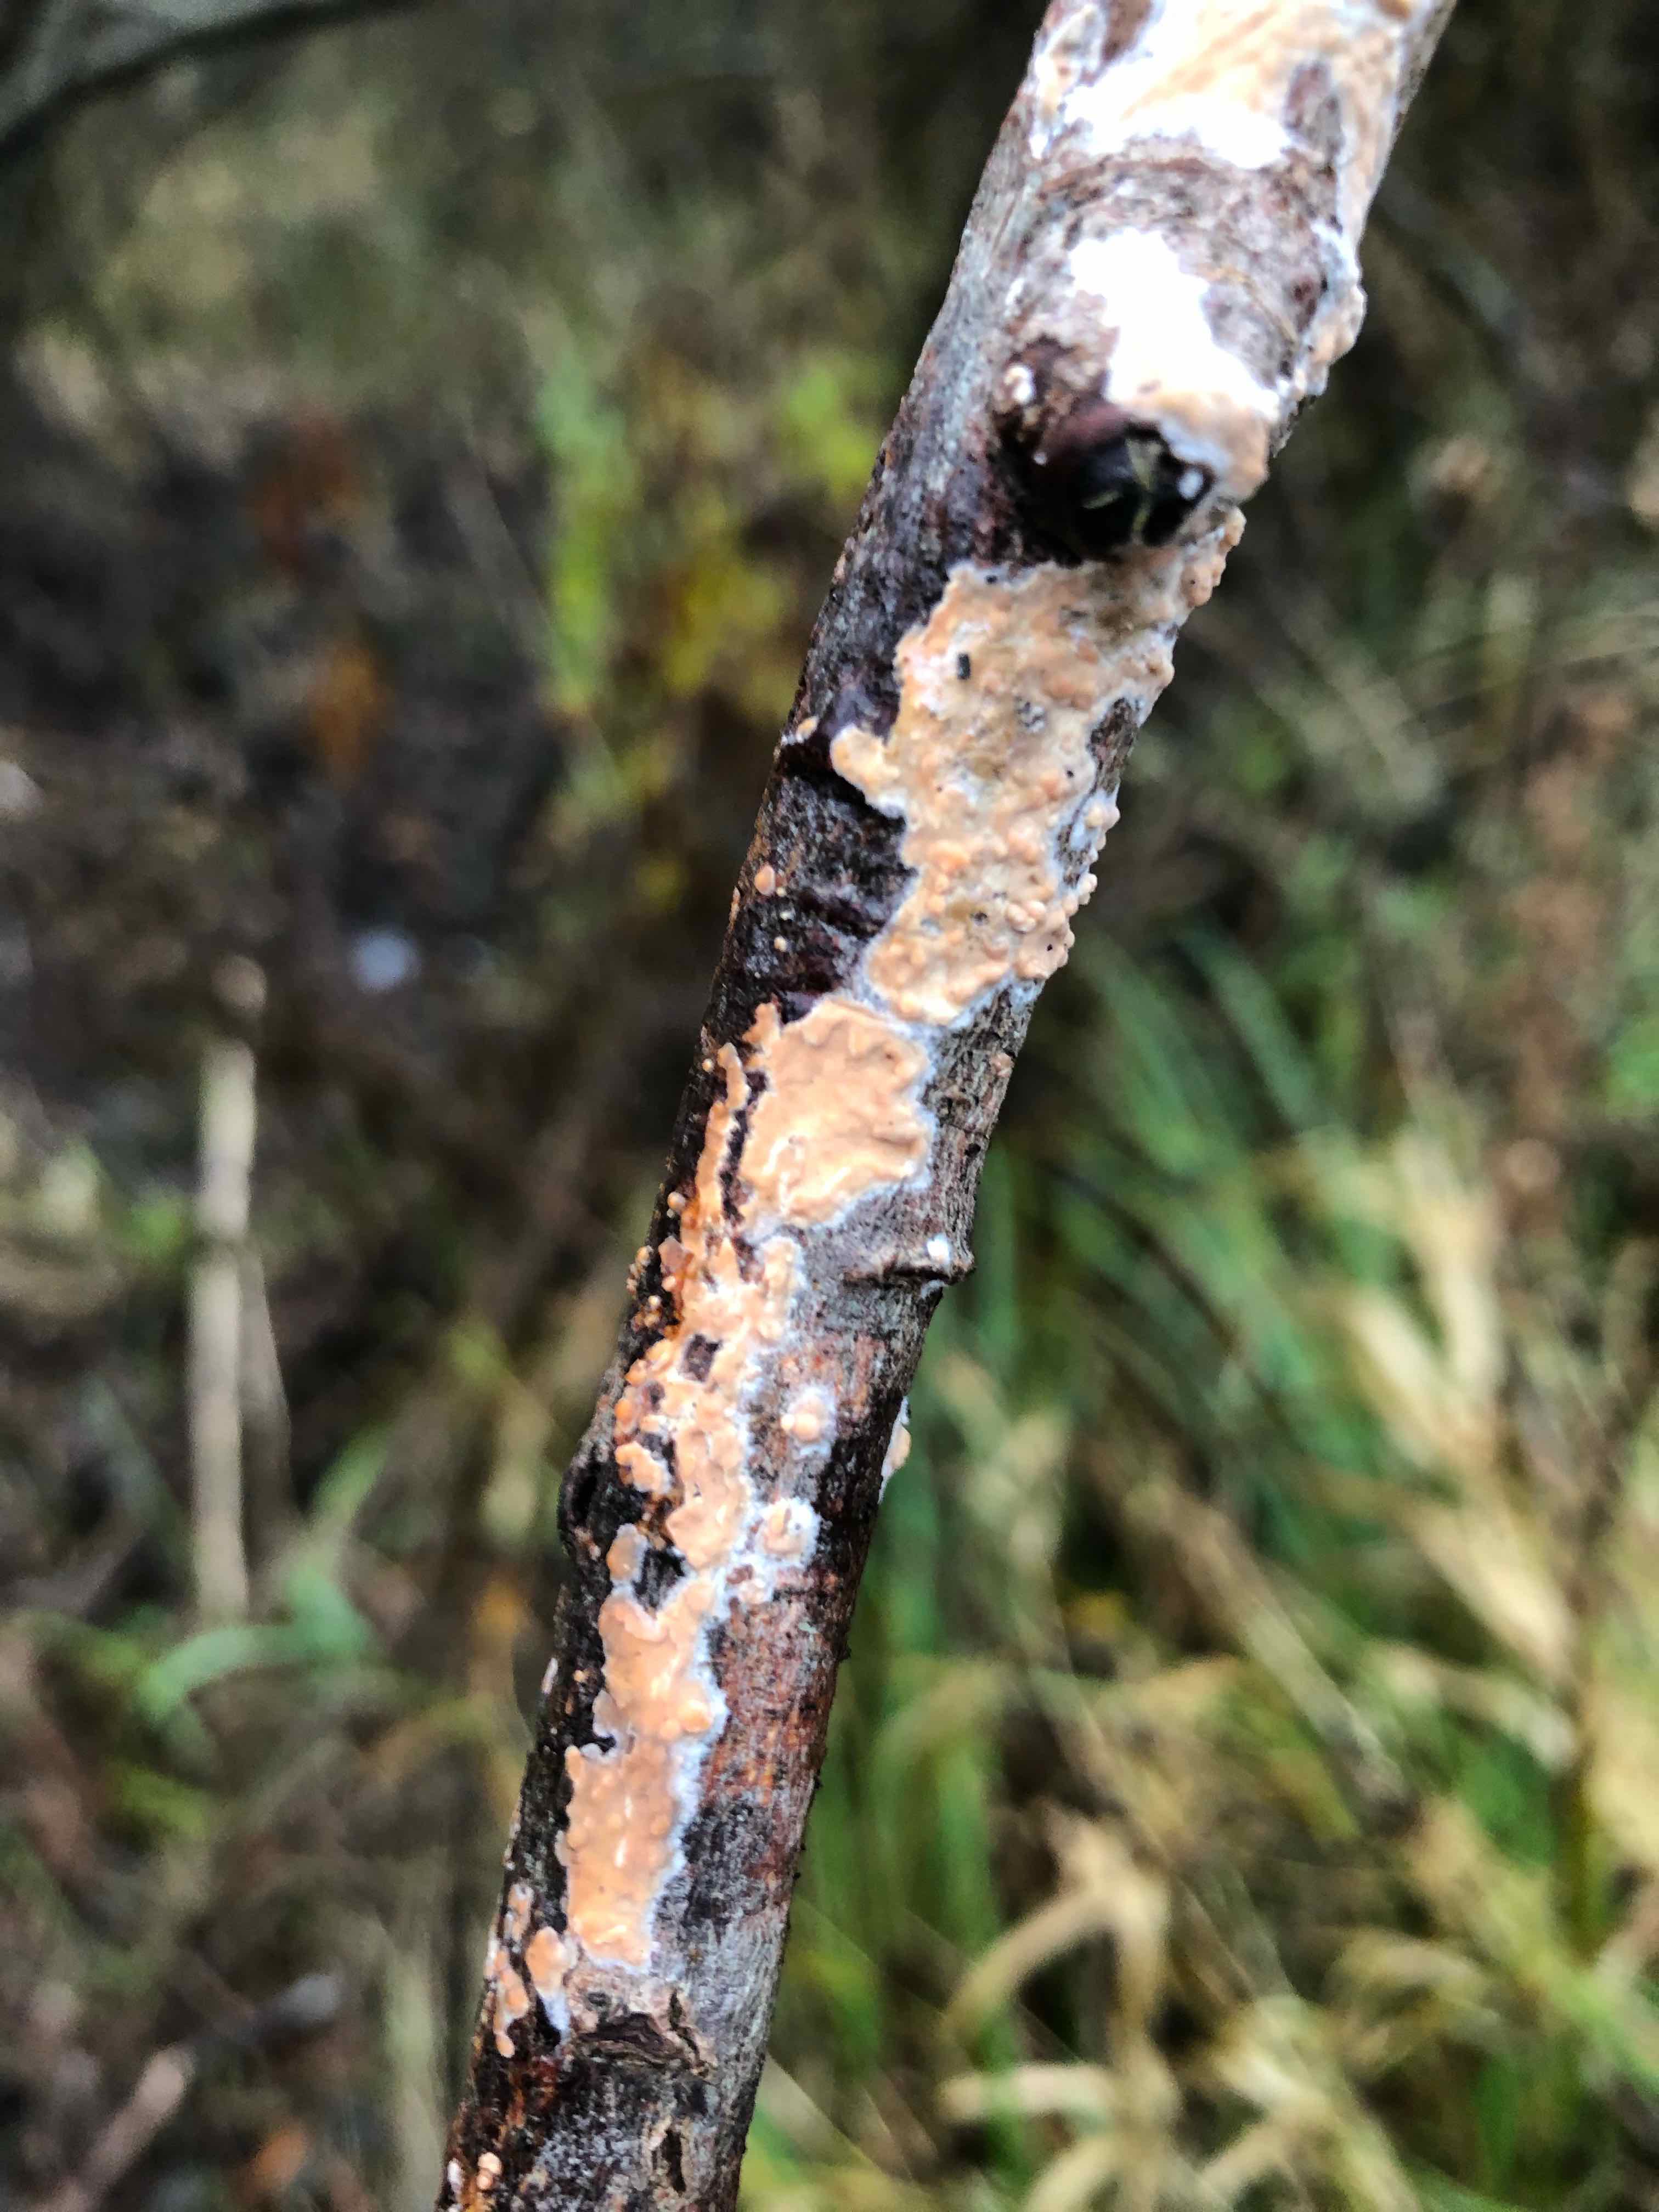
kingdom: Fungi
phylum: Basidiomycota
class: Agaricomycetes
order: Russulales
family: Peniophoraceae
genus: Peniophora
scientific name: Peniophora incarnata
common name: laksefarvet voksskind
